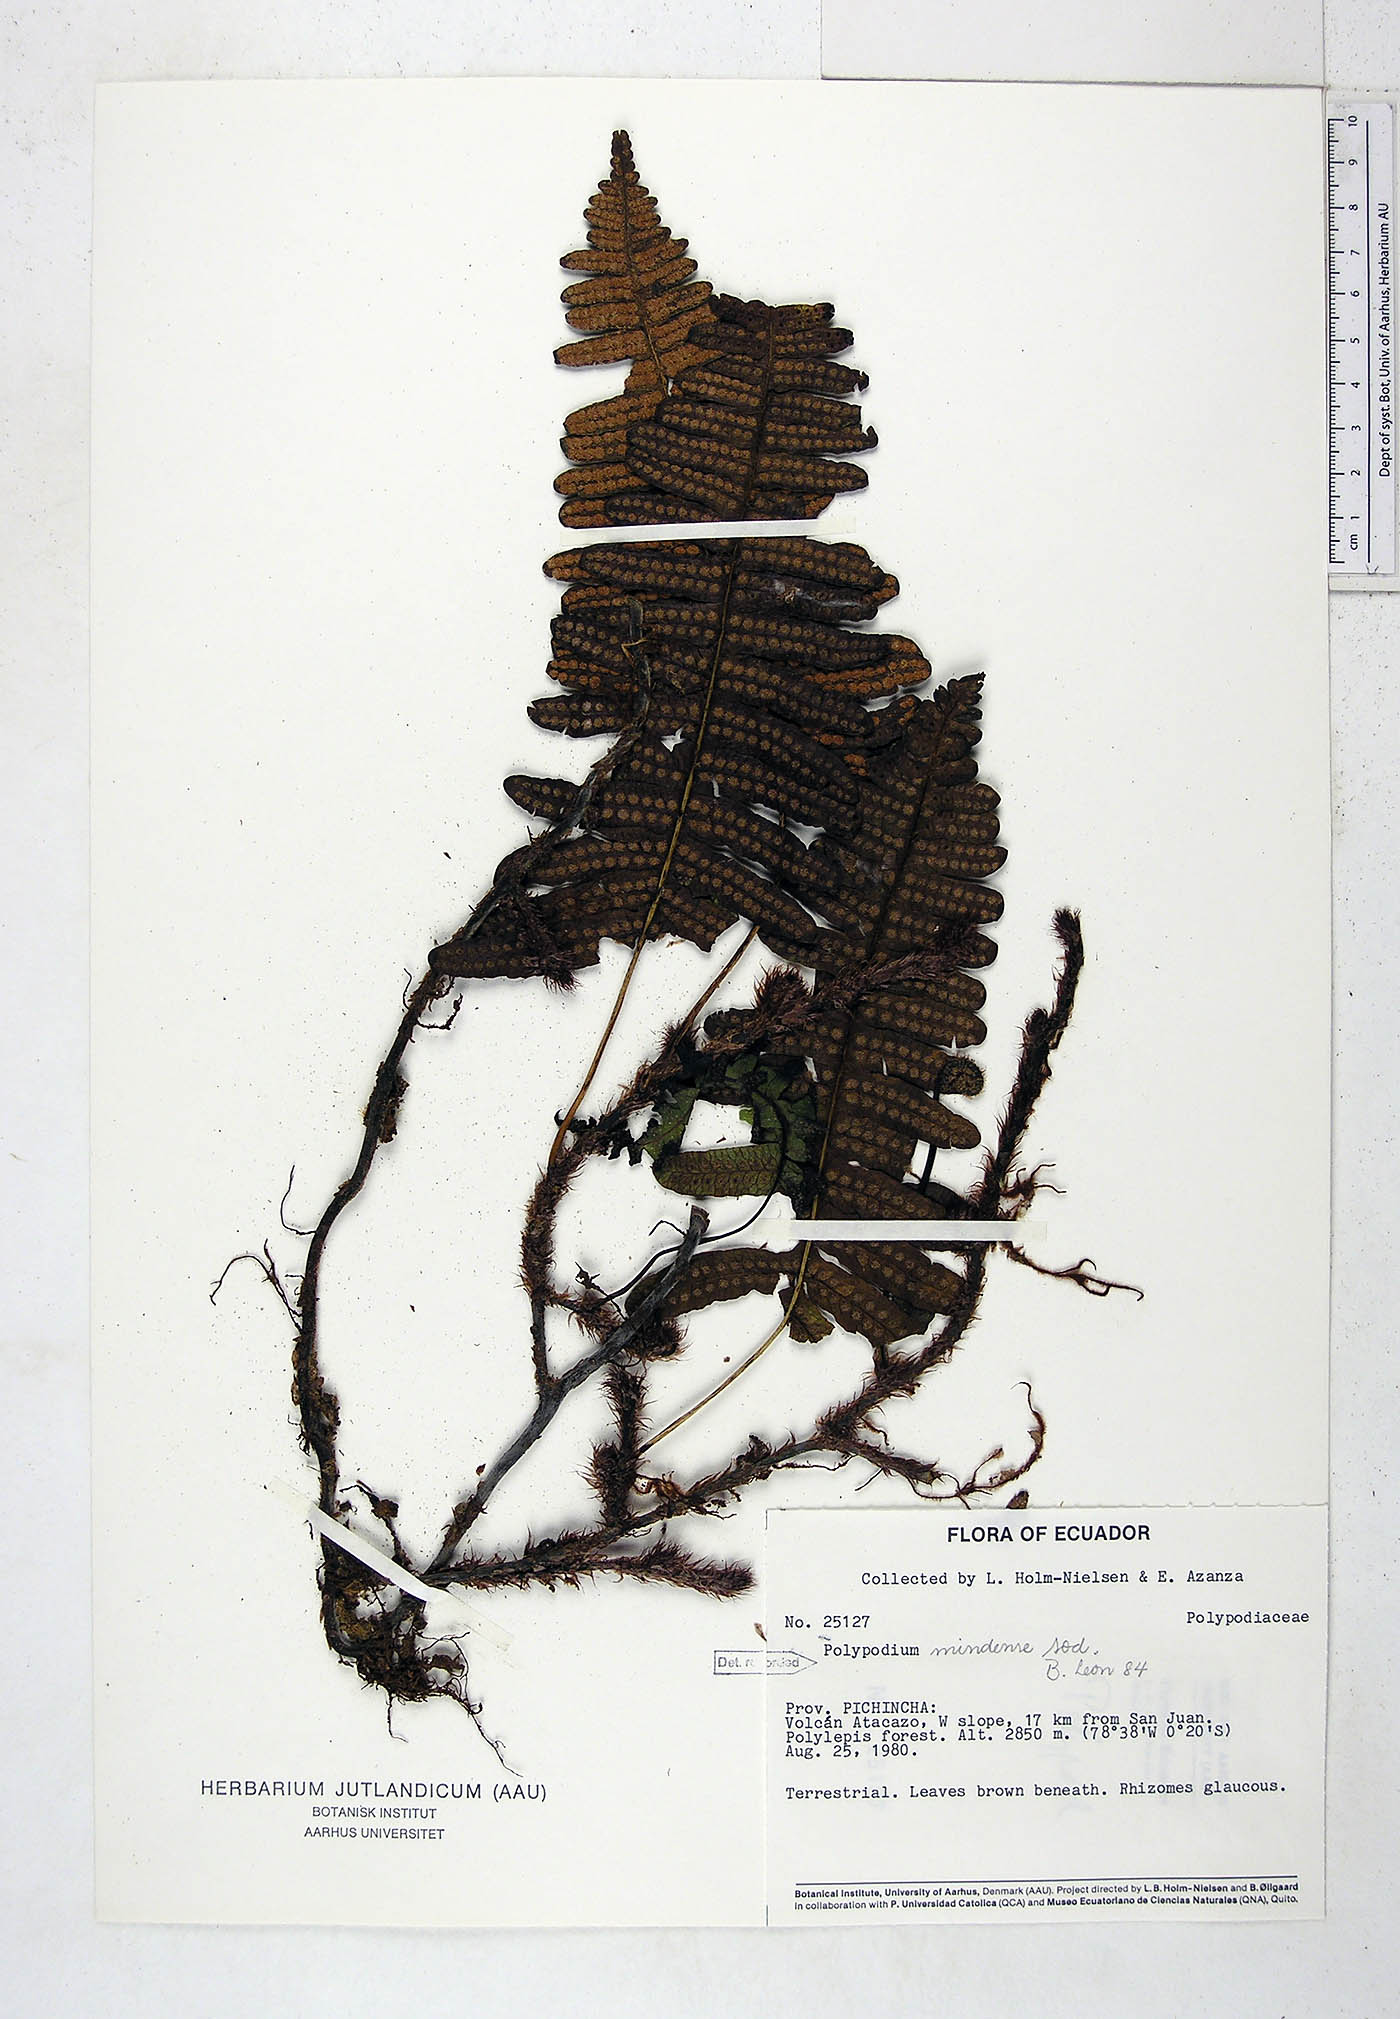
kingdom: Plantae
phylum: Tracheophyta
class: Polypodiopsida
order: Polypodiales
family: Polypodiaceae
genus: Serpocaulon
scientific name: Serpocaulon eleutherophlebium
